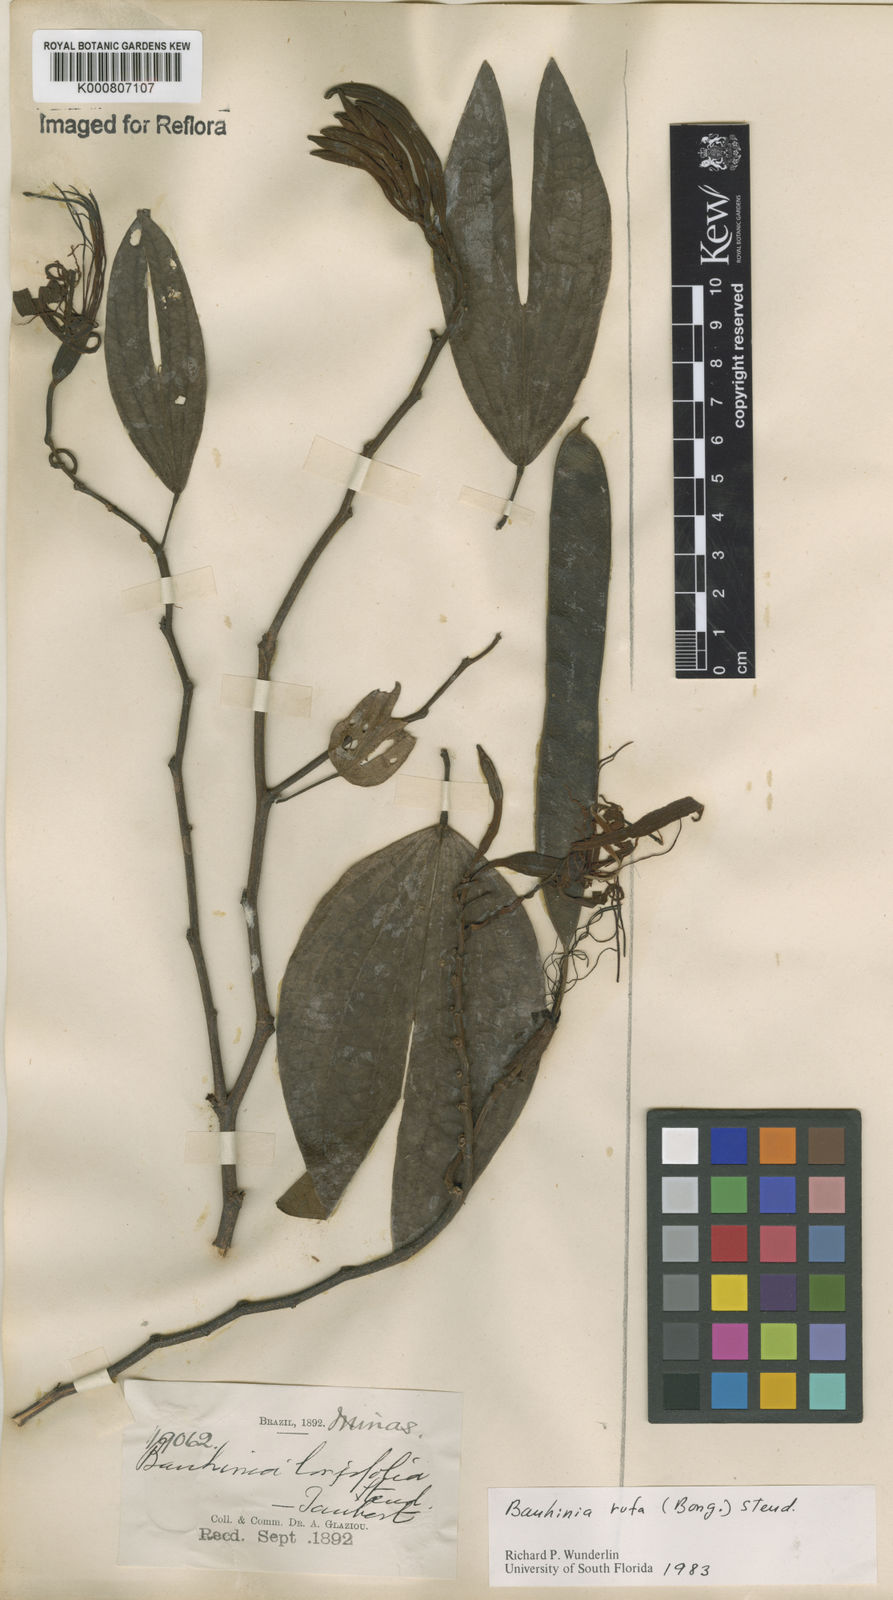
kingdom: Plantae
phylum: Tracheophyta
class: Magnoliopsida
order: Fabales
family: Fabaceae
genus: Bauhinia
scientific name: Bauhinia rufa
